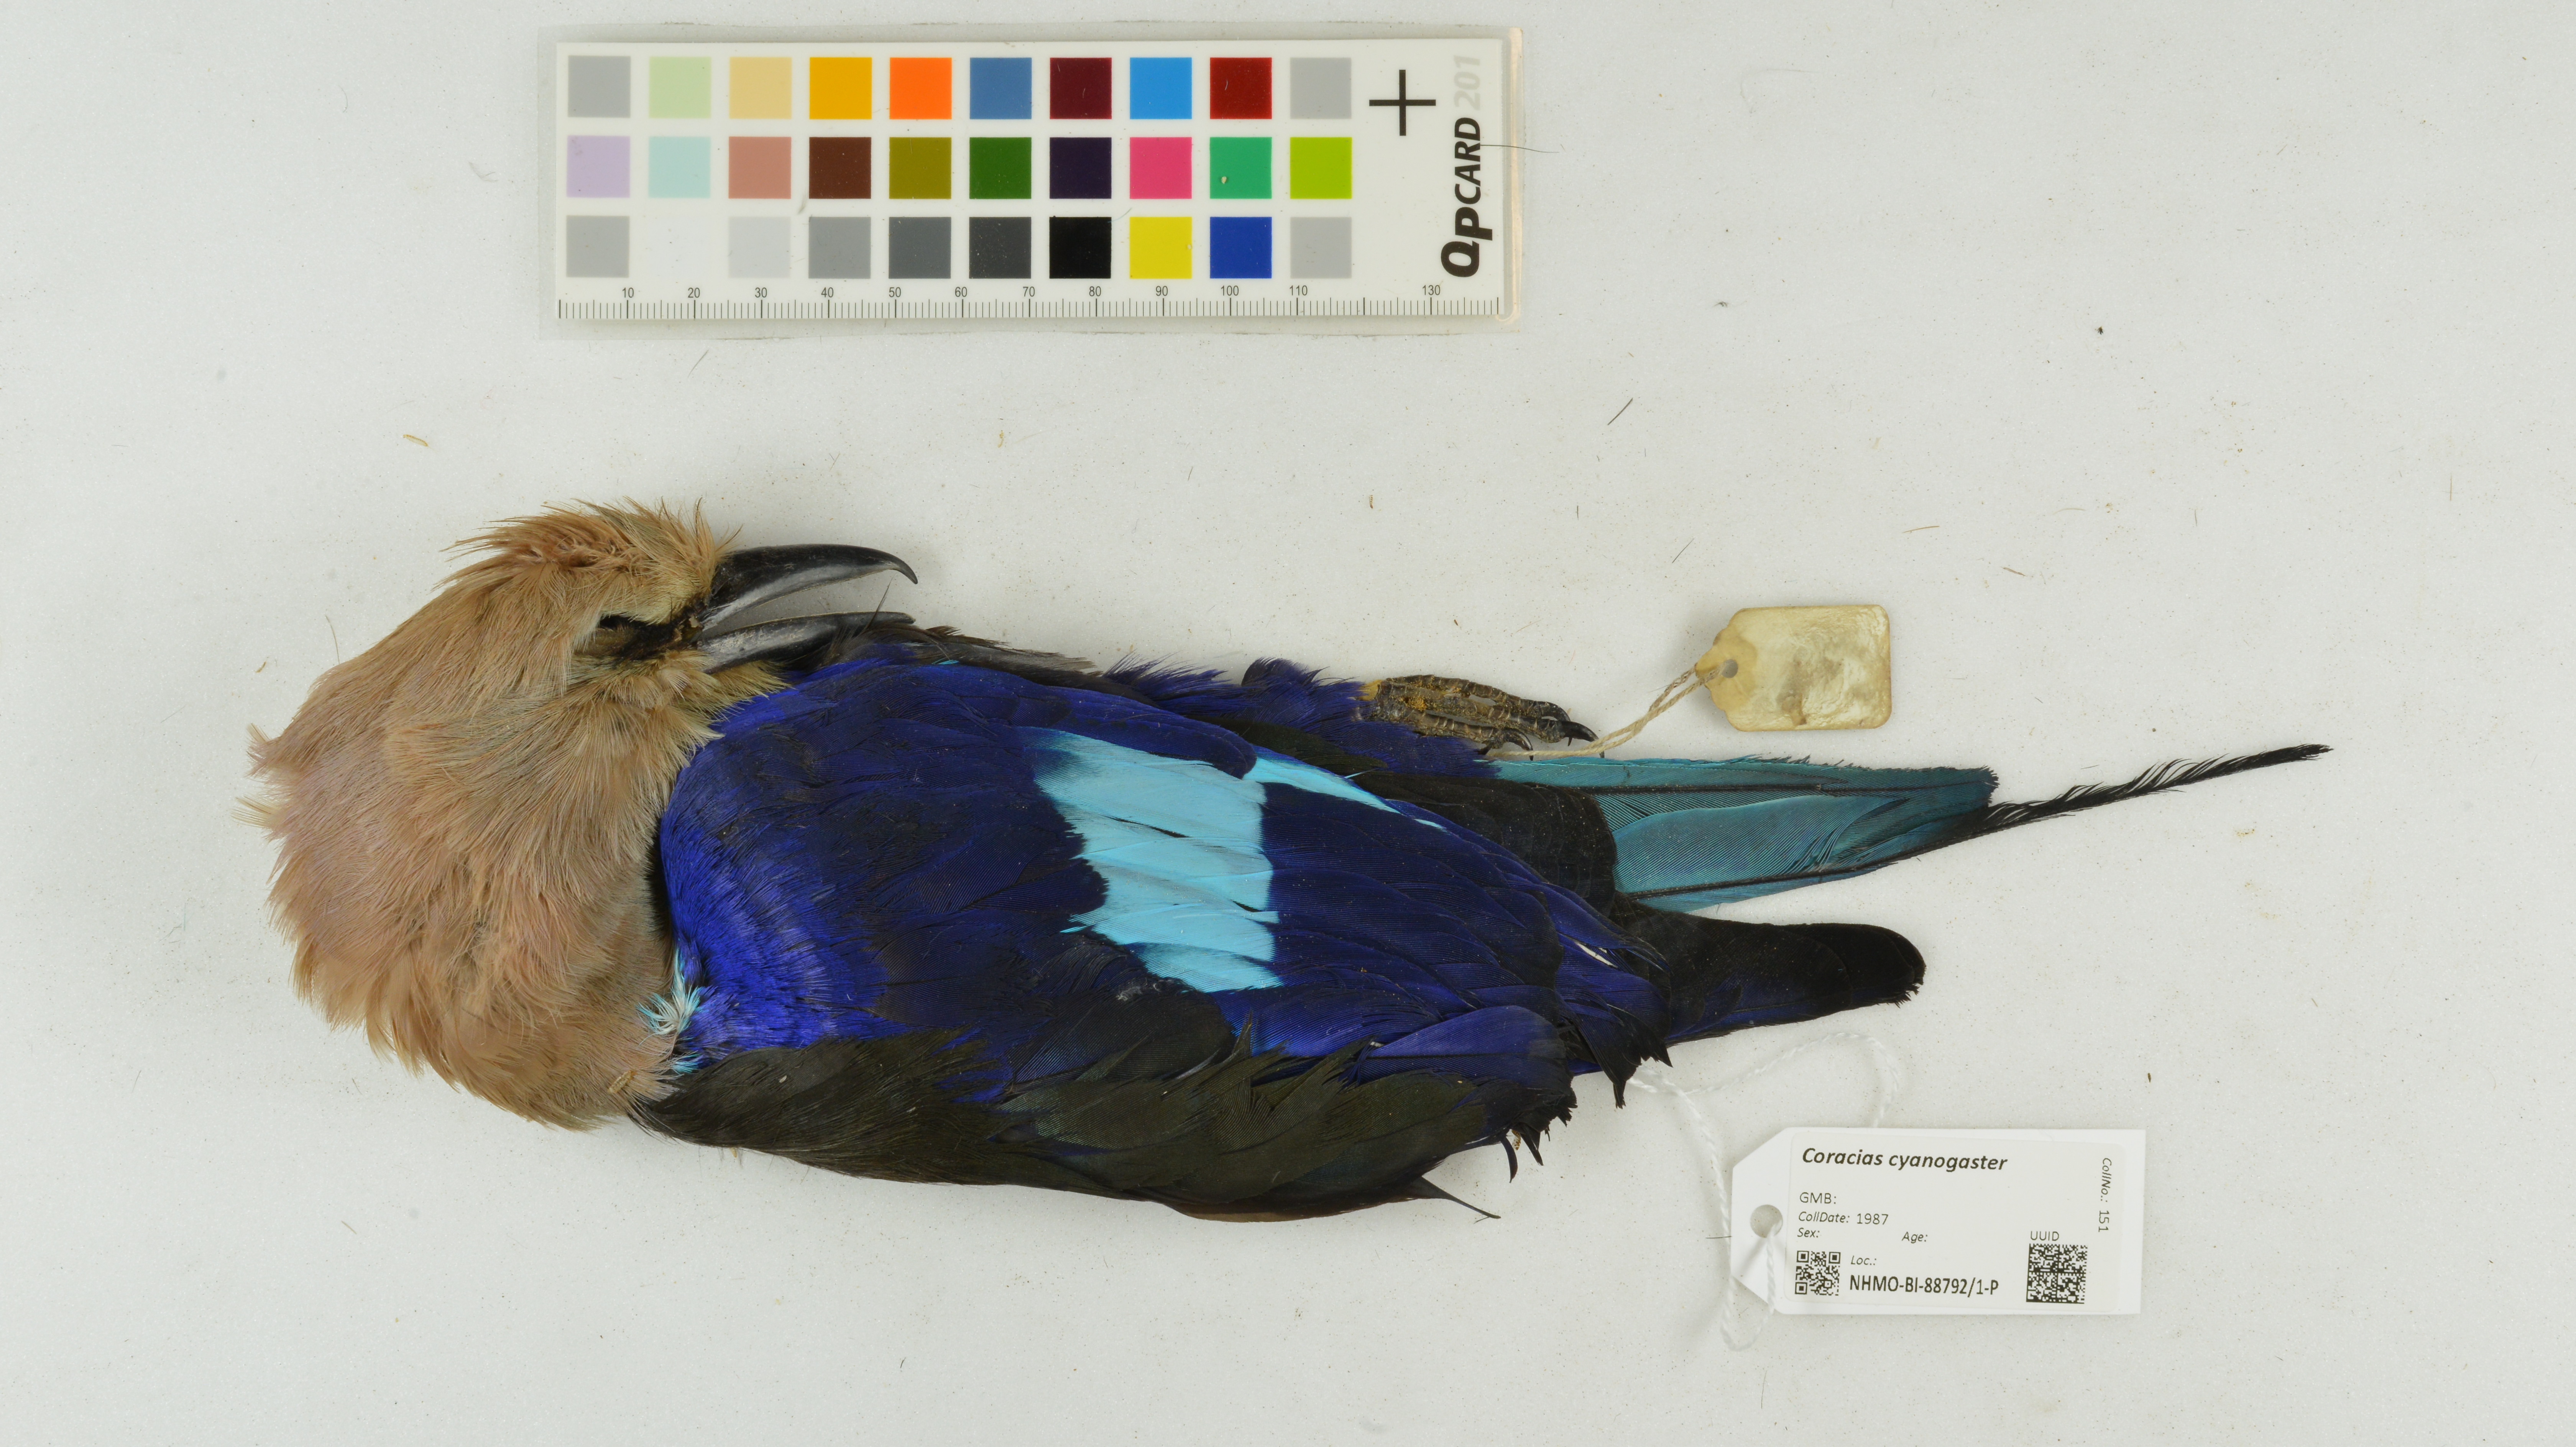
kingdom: Animalia
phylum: Chordata
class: Aves
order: Coraciiformes
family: Coraciidae
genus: Coracias
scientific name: Coracias cyanogaster
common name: Blue-bellied roller
